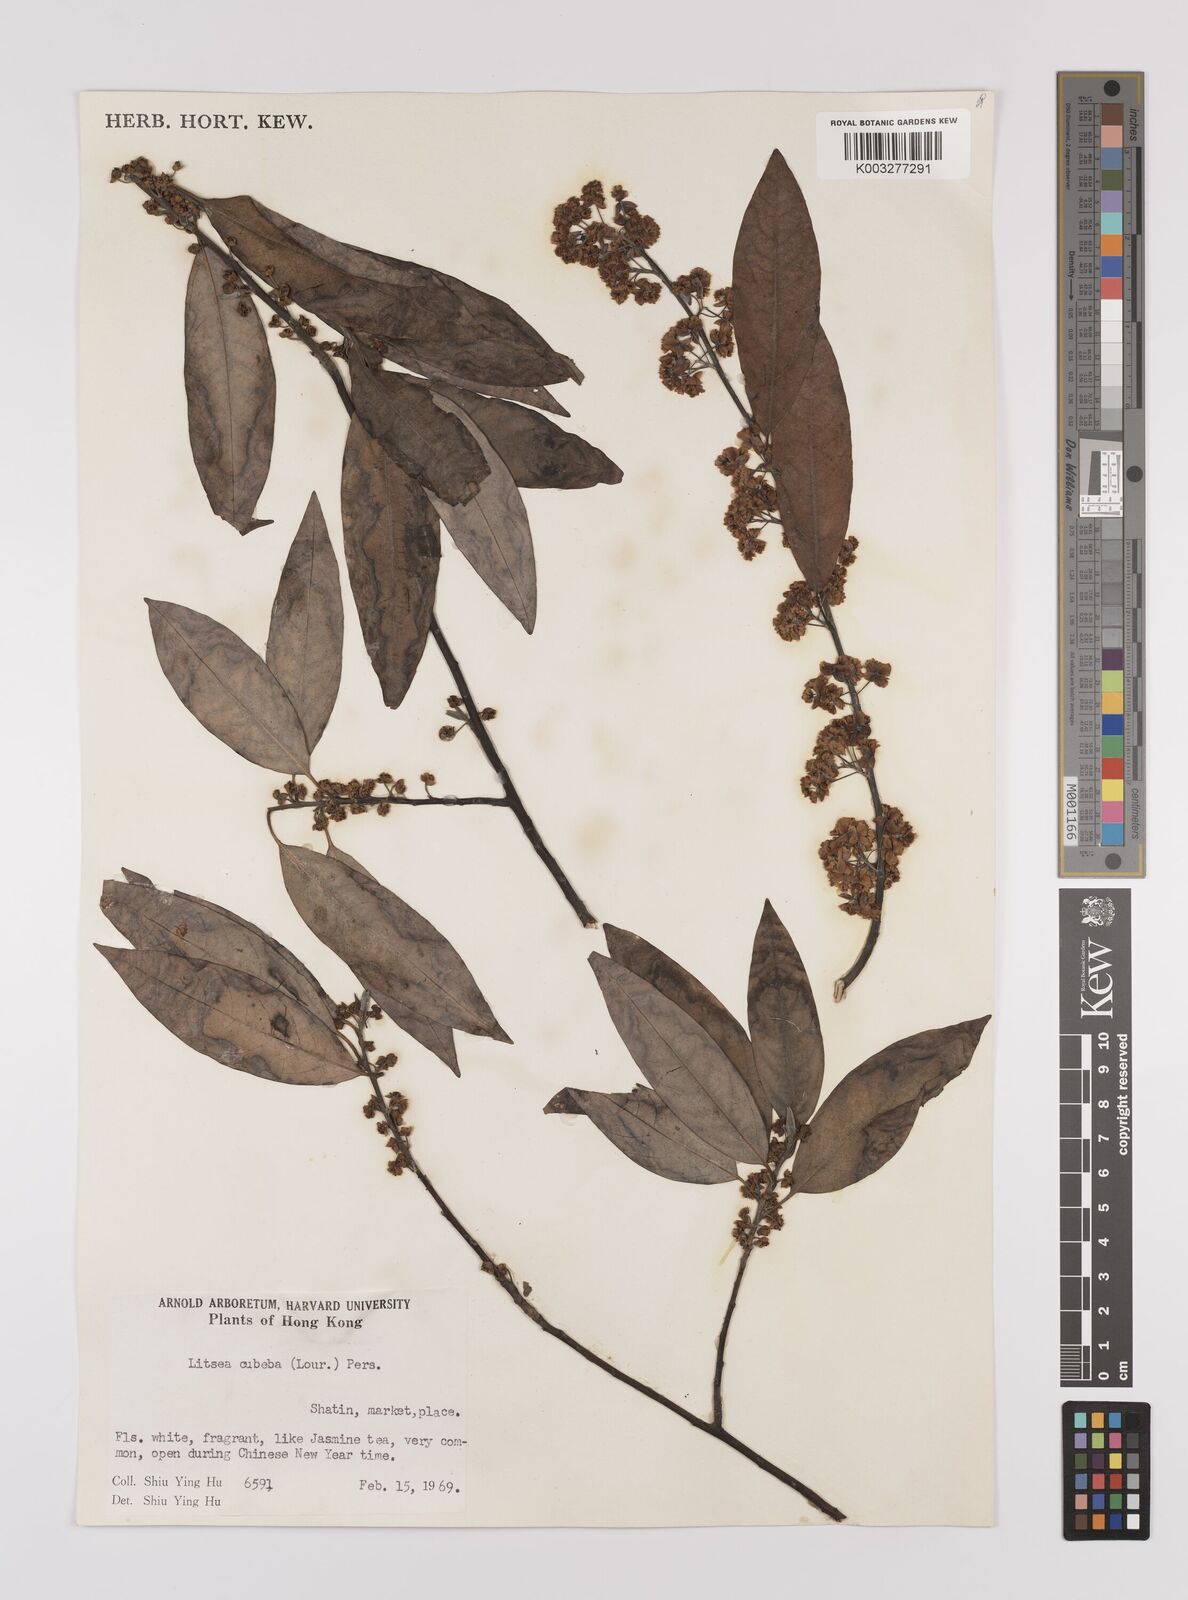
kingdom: Plantae
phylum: Tracheophyta
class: Magnoliopsida
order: Laurales
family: Lauraceae
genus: Litsea
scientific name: Litsea cubeba
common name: Mountain-pepper
